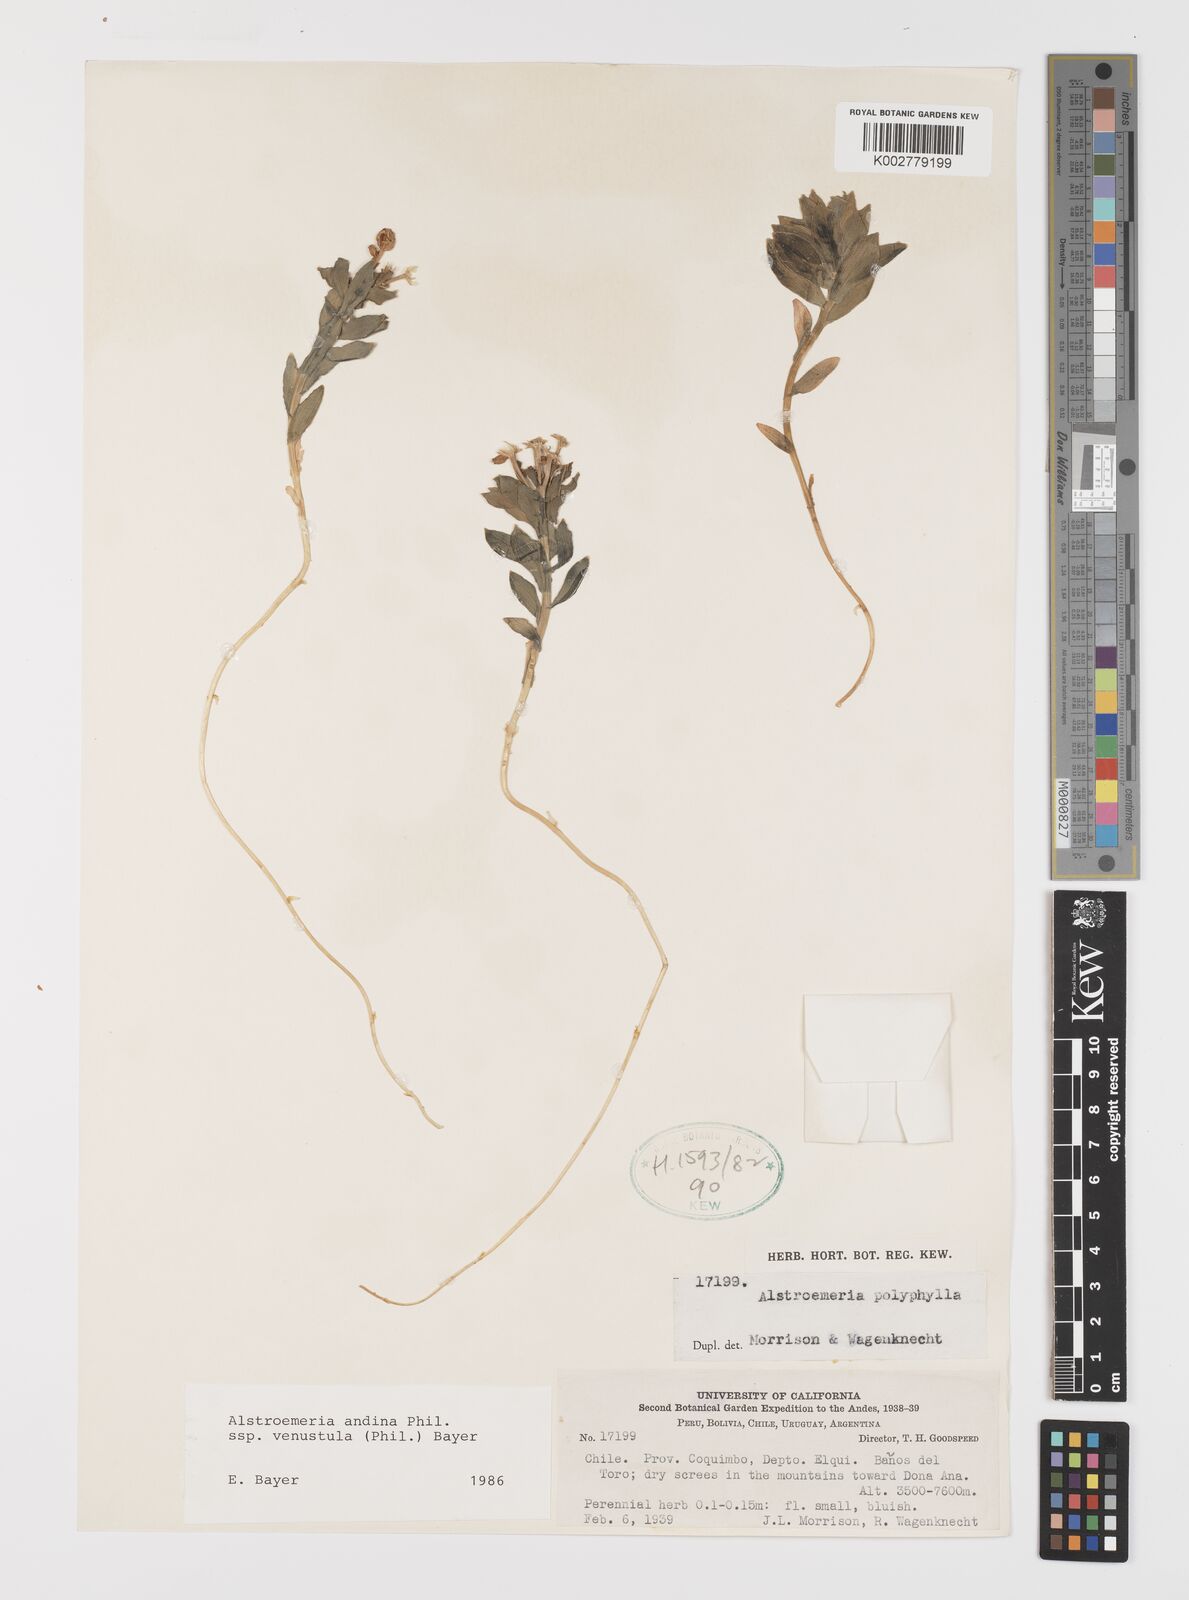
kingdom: Plantae
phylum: Tracheophyta
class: Liliopsida
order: Liliales
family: Alstroemeriaceae
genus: Alstroemeria
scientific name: Alstroemeria andina
